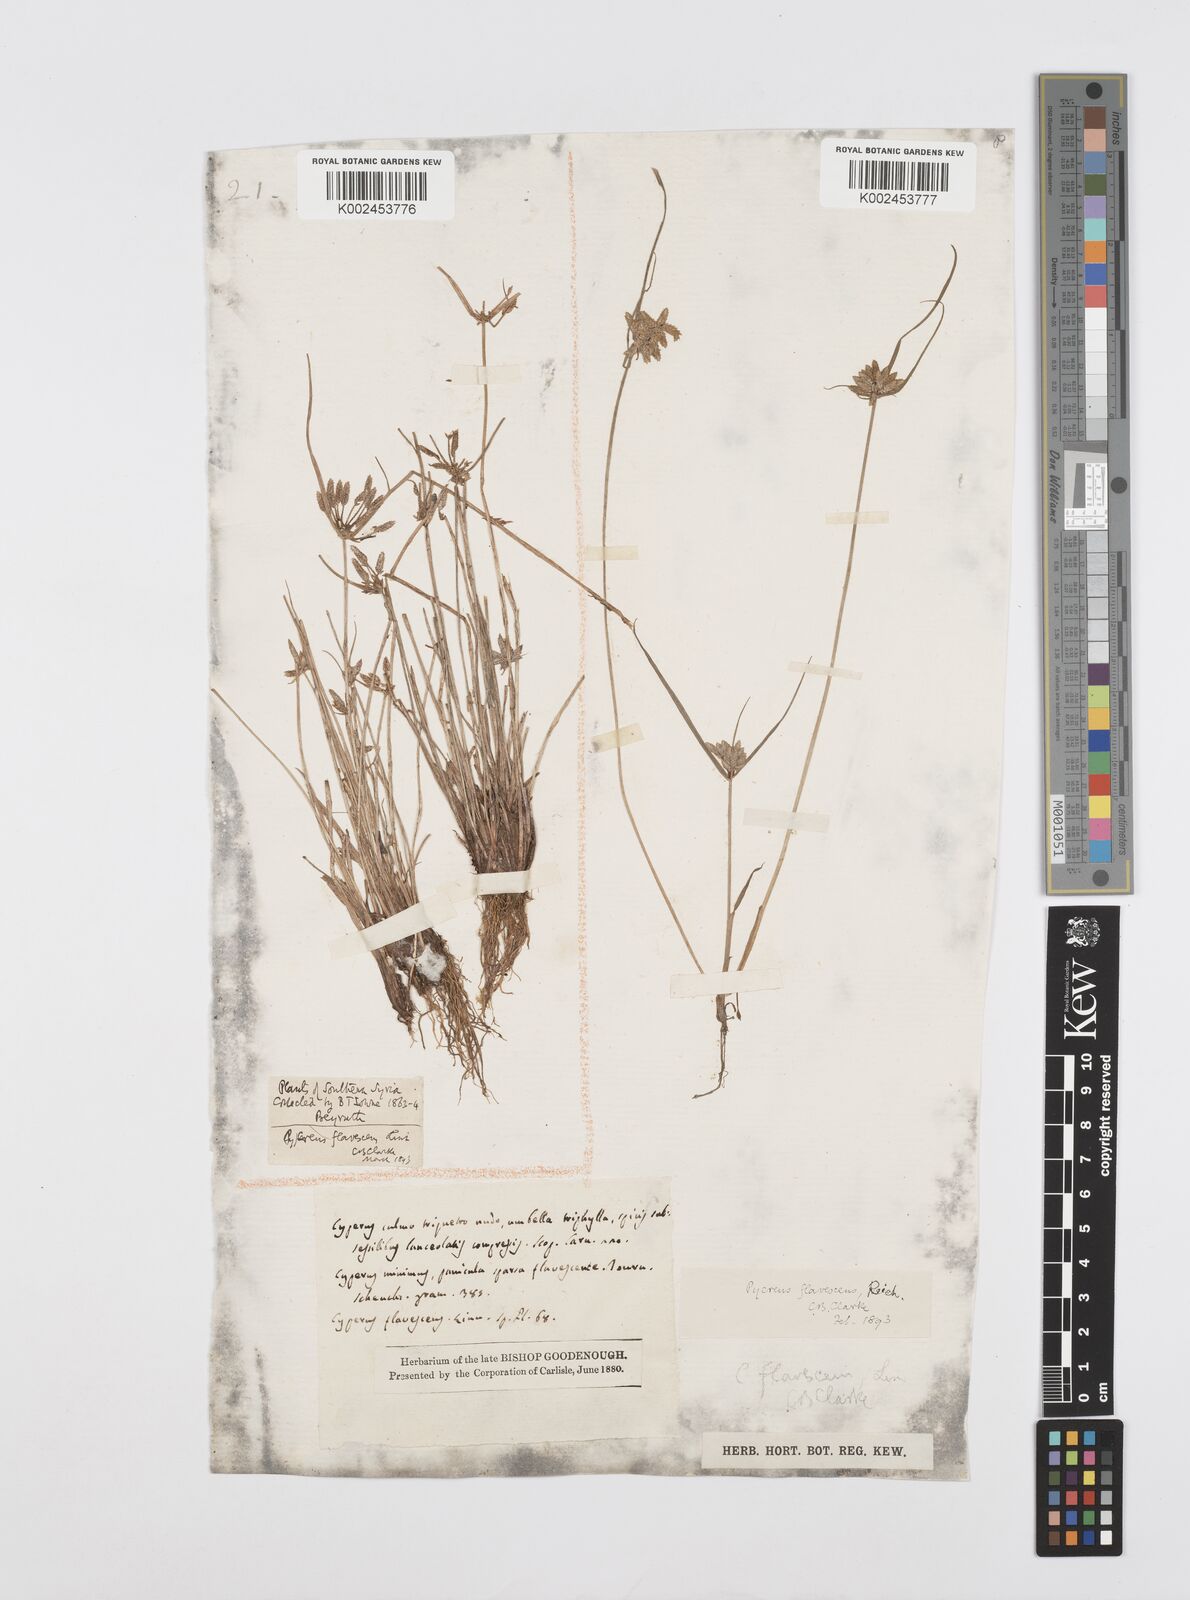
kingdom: Plantae
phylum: Tracheophyta
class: Liliopsida
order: Poales
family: Cyperaceae
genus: Cyperus
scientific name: Cyperus flavescens
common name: Yellow galingale
